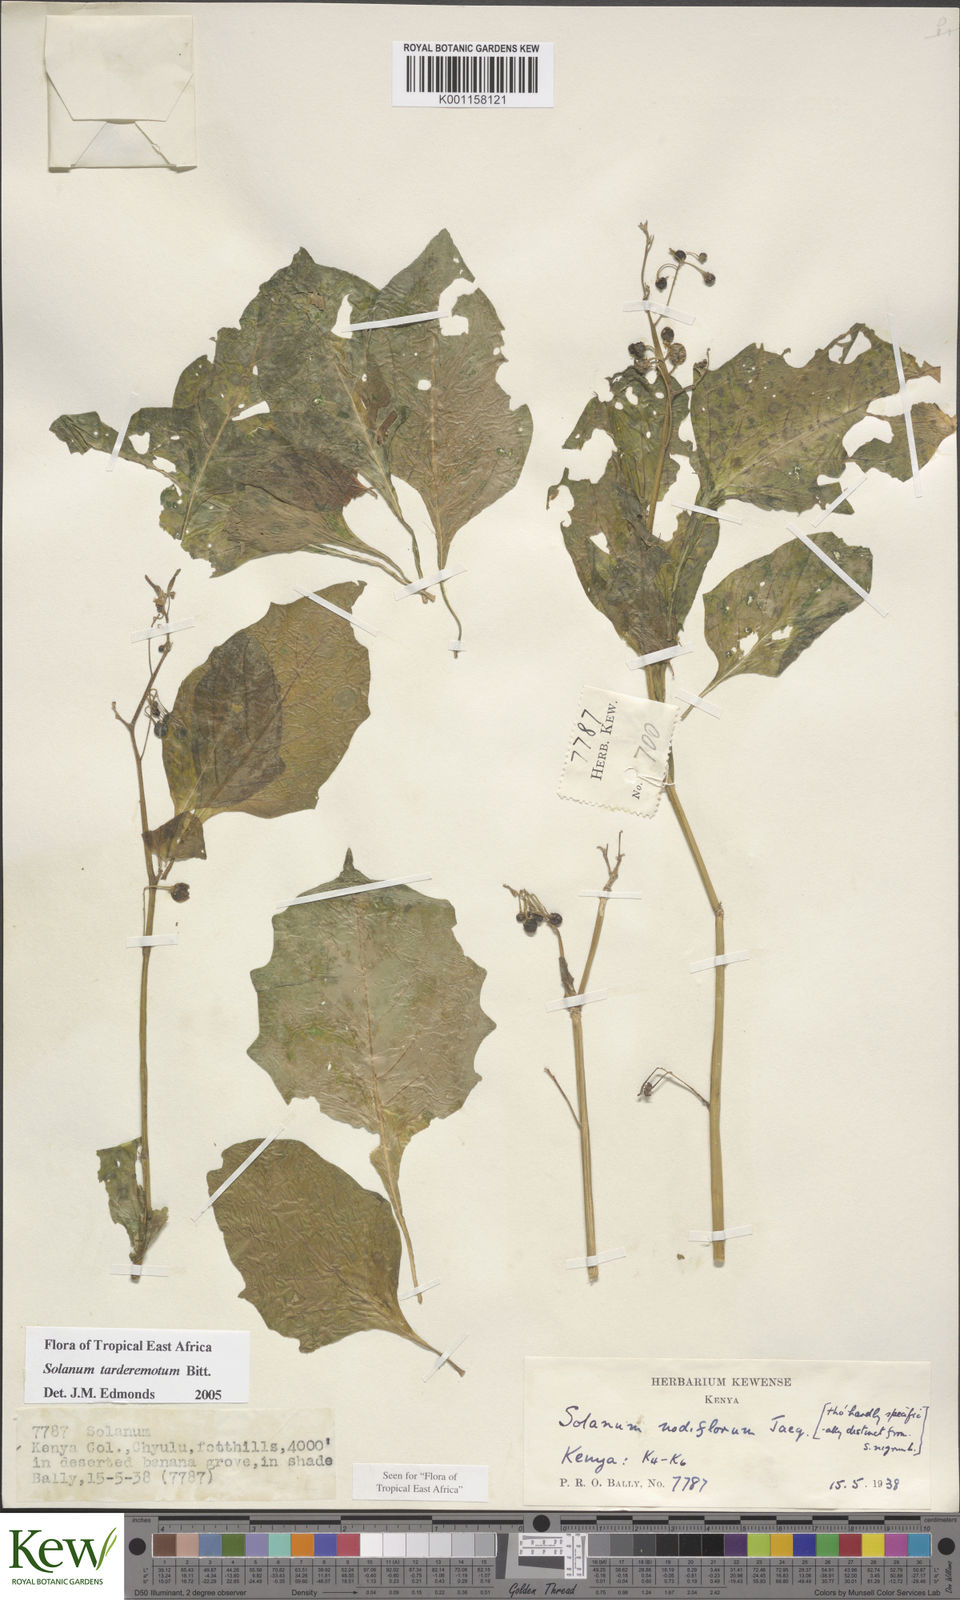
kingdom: Plantae
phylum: Tracheophyta
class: Magnoliopsida
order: Solanales
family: Solanaceae
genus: Solanum
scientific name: Solanum tarderemotum
